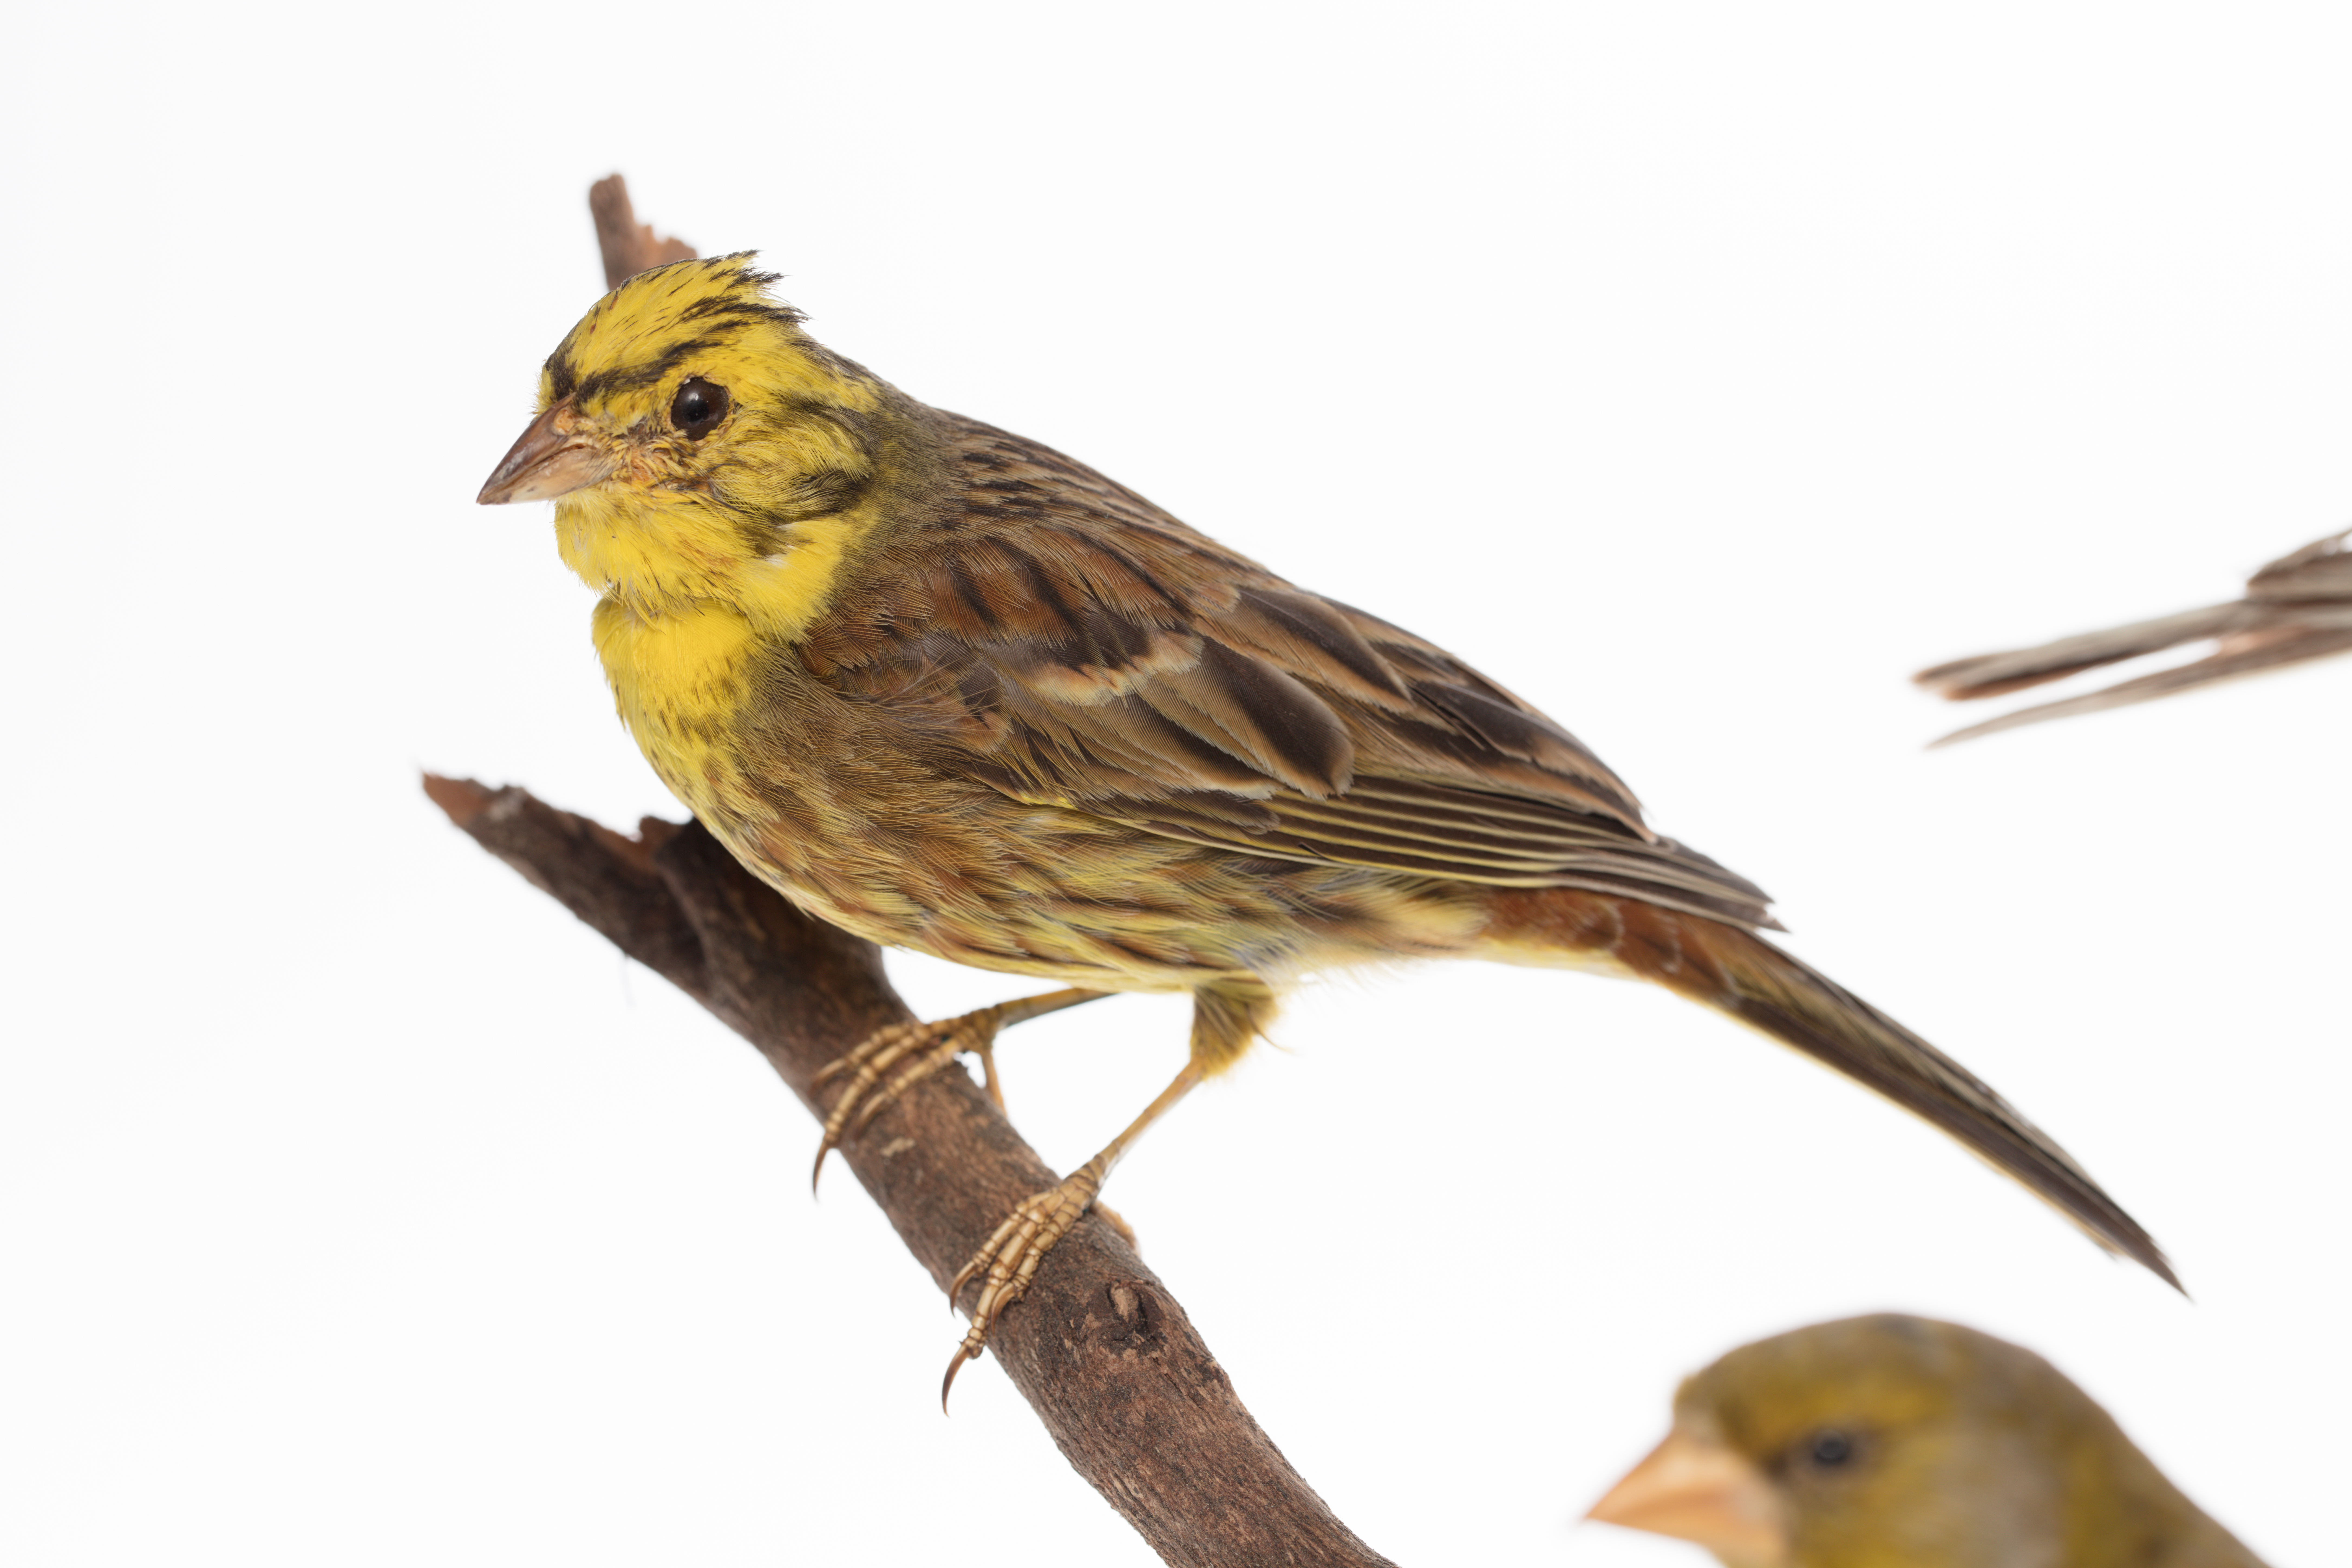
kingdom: Animalia
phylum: Chordata
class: Aves
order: Passeriformes
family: Emberizidae
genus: Emberiza
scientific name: Emberiza citrinella
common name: Yellowhammer
